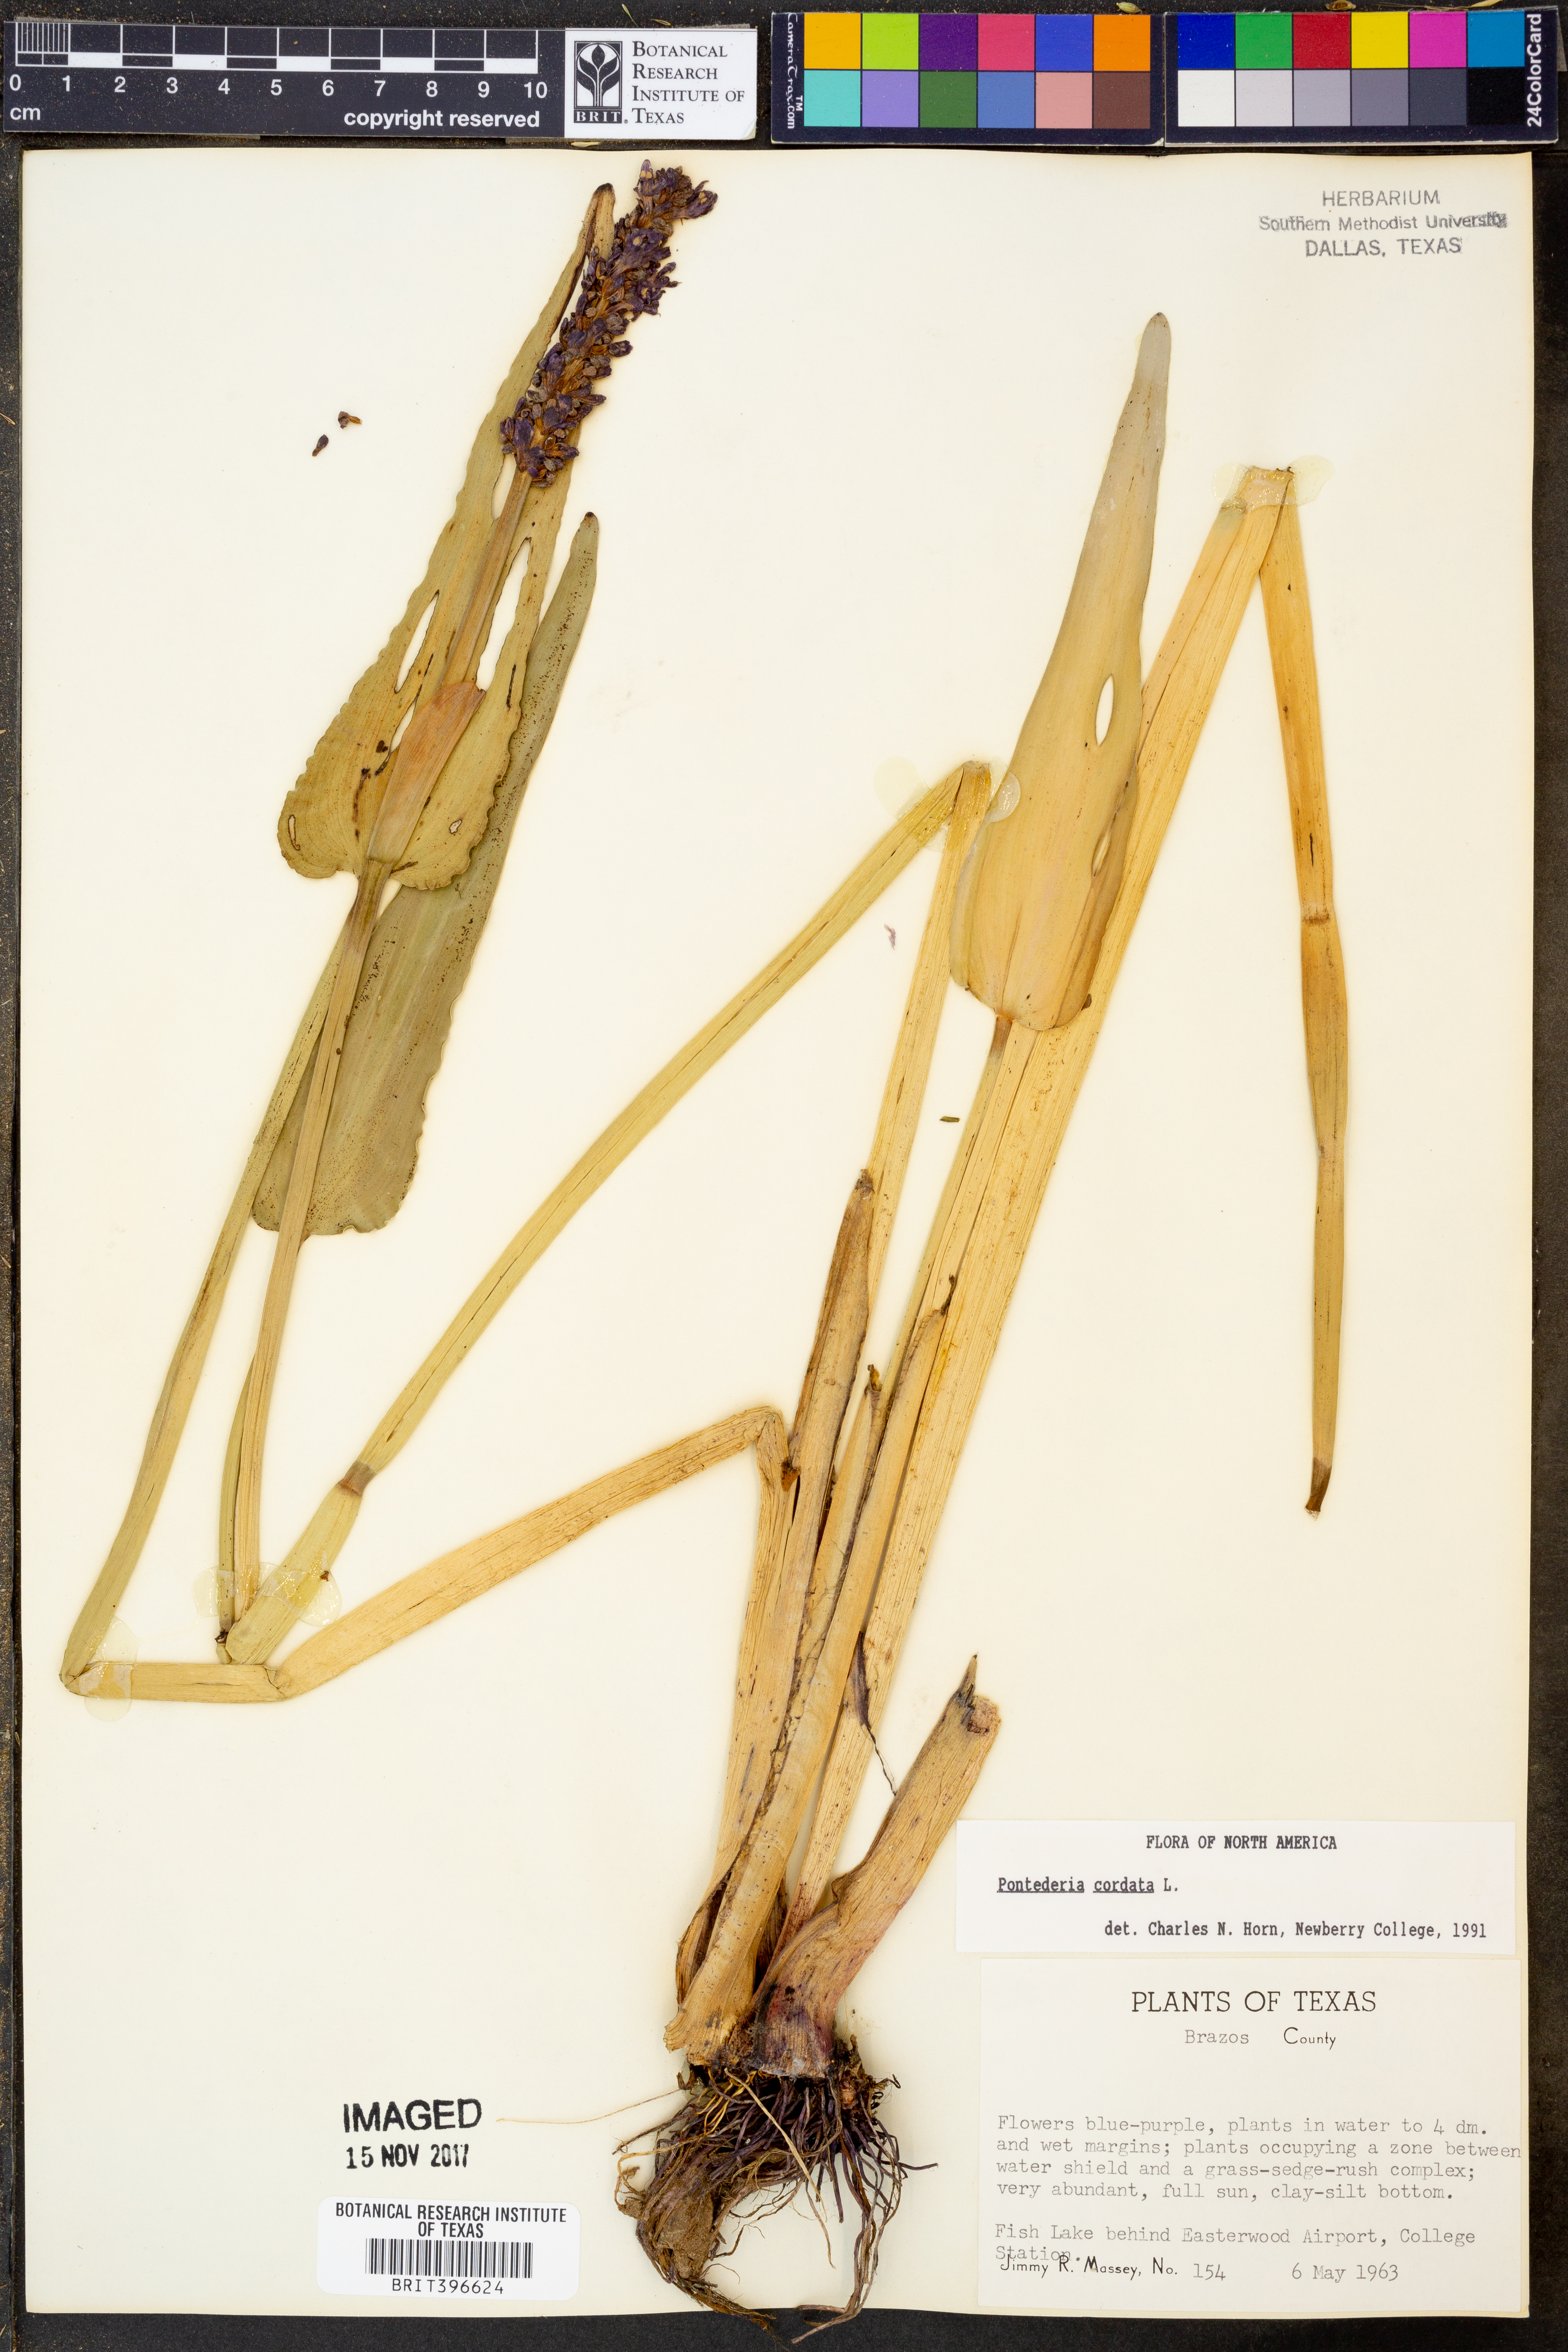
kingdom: Plantae
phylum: Tracheophyta
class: Liliopsida
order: Commelinales
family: Pontederiaceae
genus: Pontederia
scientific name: Pontederia cordata
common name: Pickerelweed
